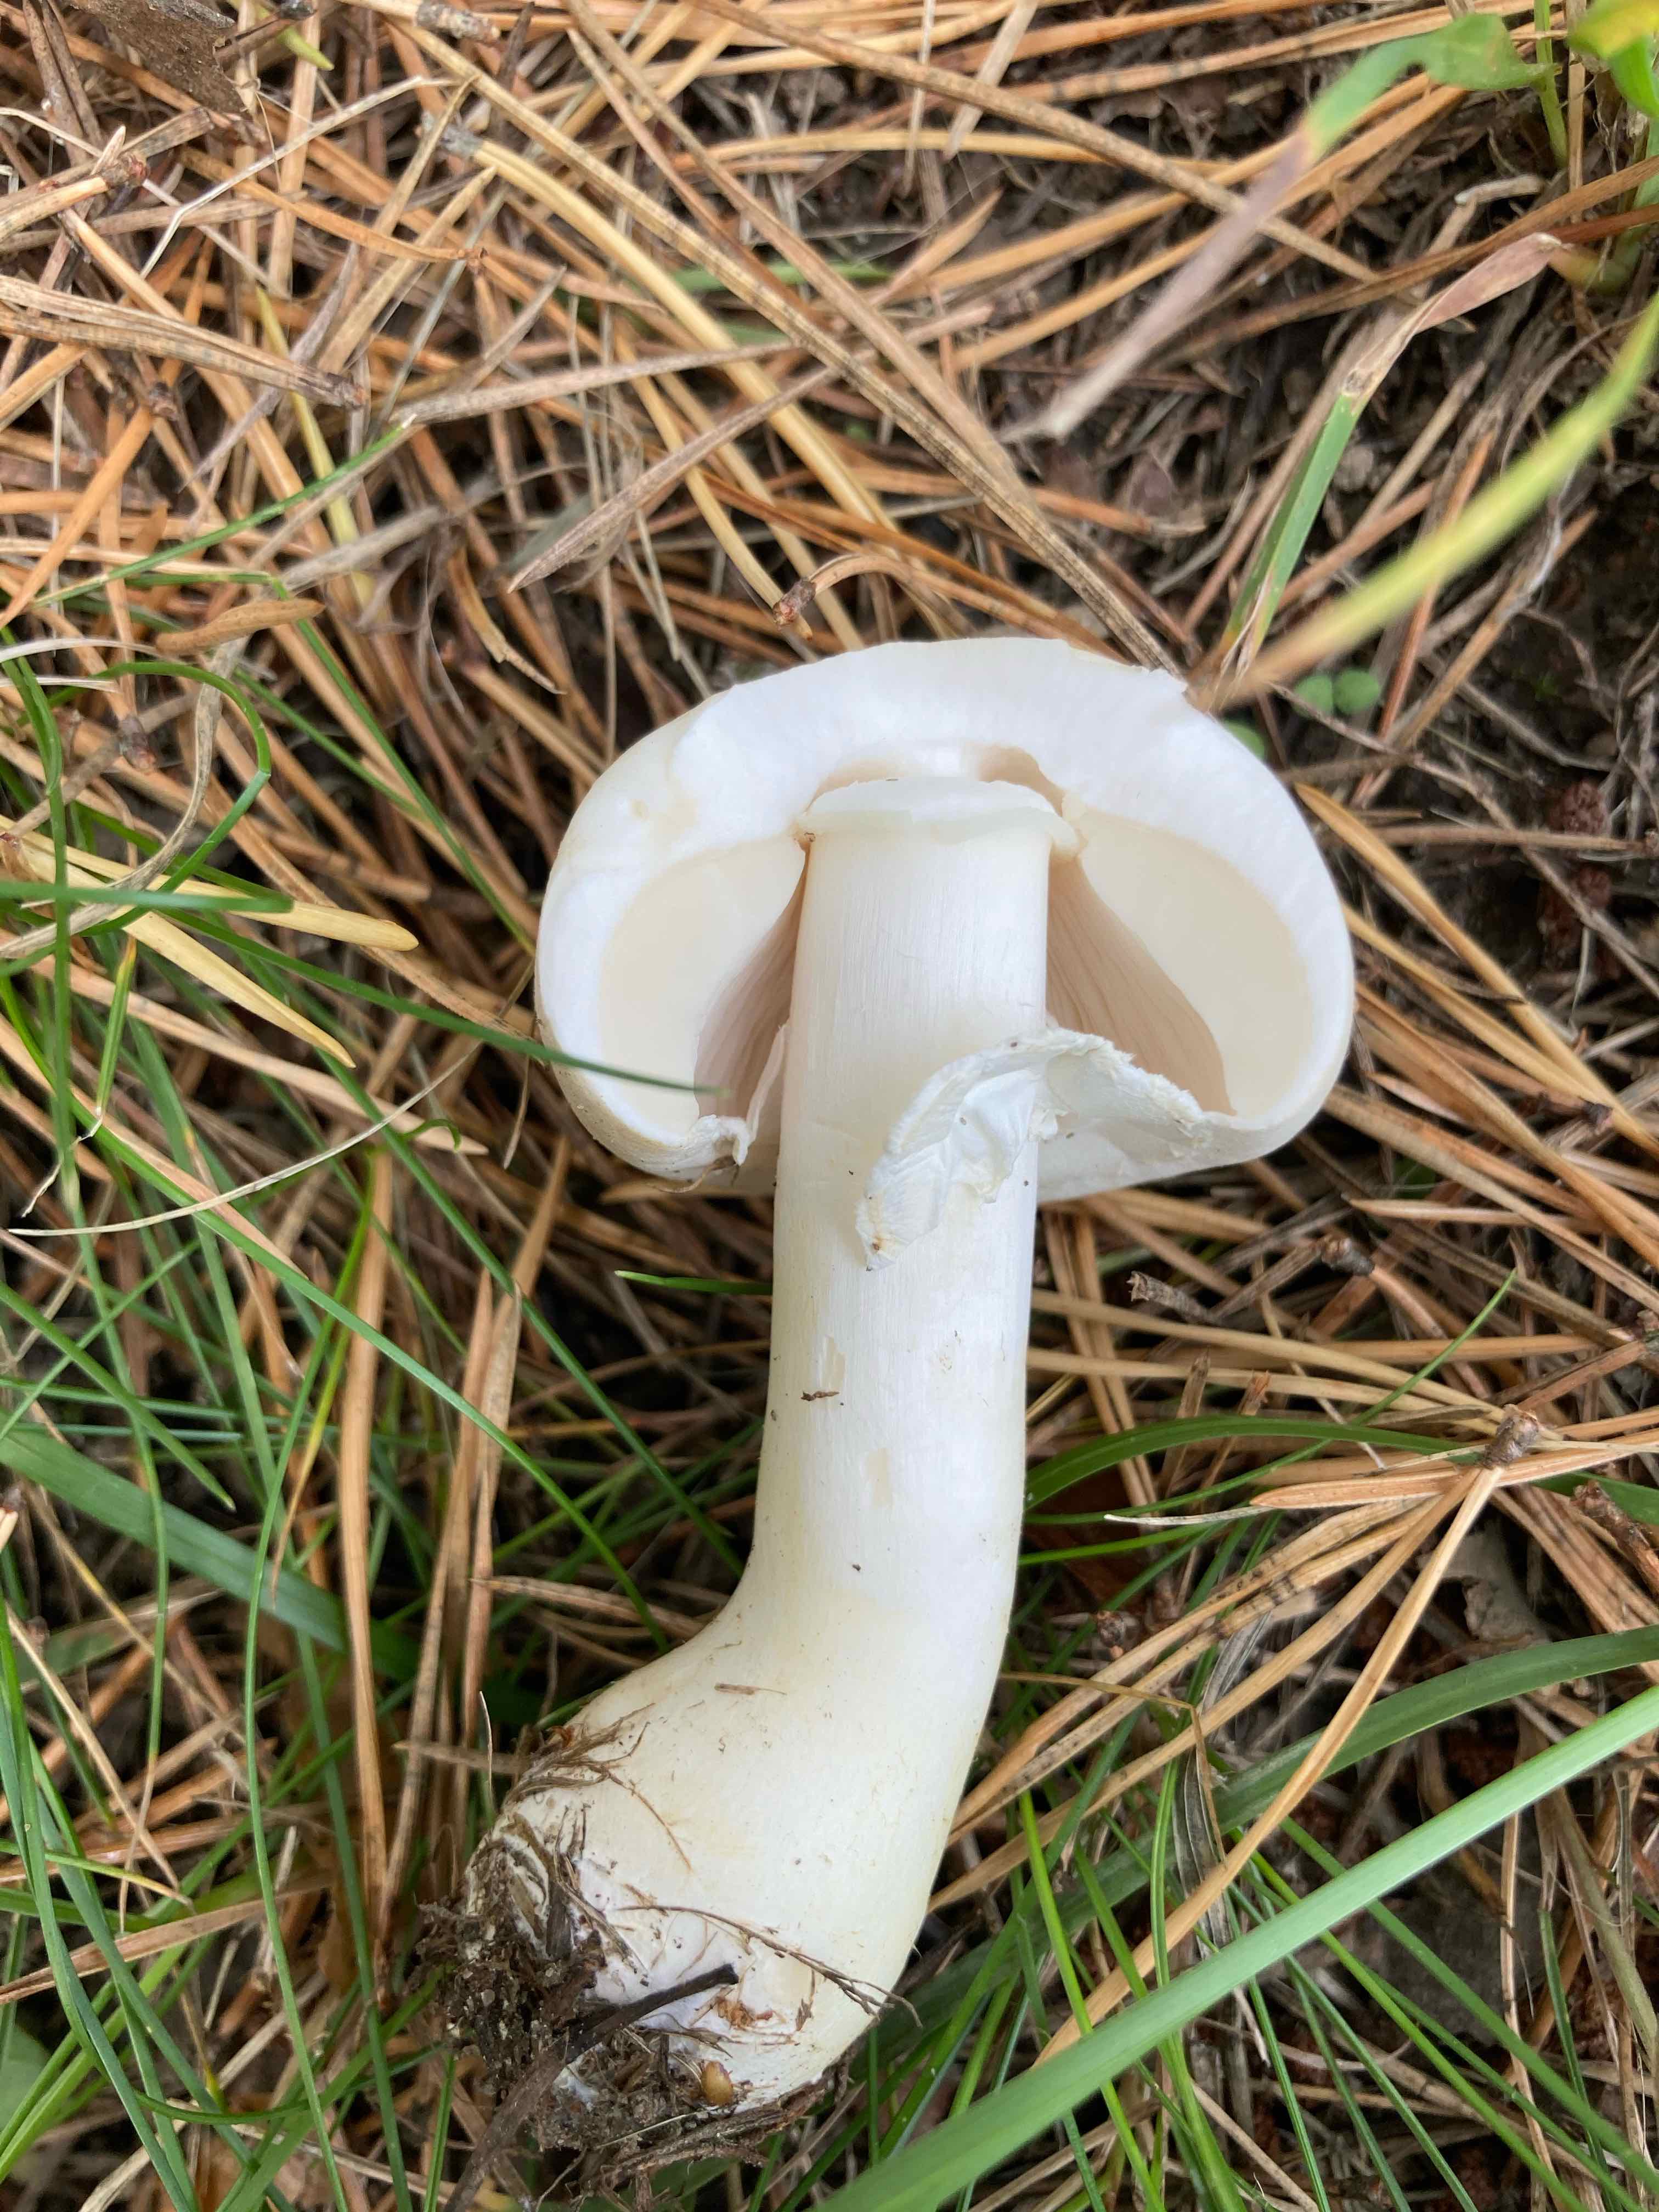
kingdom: Fungi
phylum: Basidiomycota
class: Agaricomycetes
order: Agaricales
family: Agaricaceae
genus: Leucoagaricus
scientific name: Leucoagaricus leucothites
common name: rosabladet silkehat
